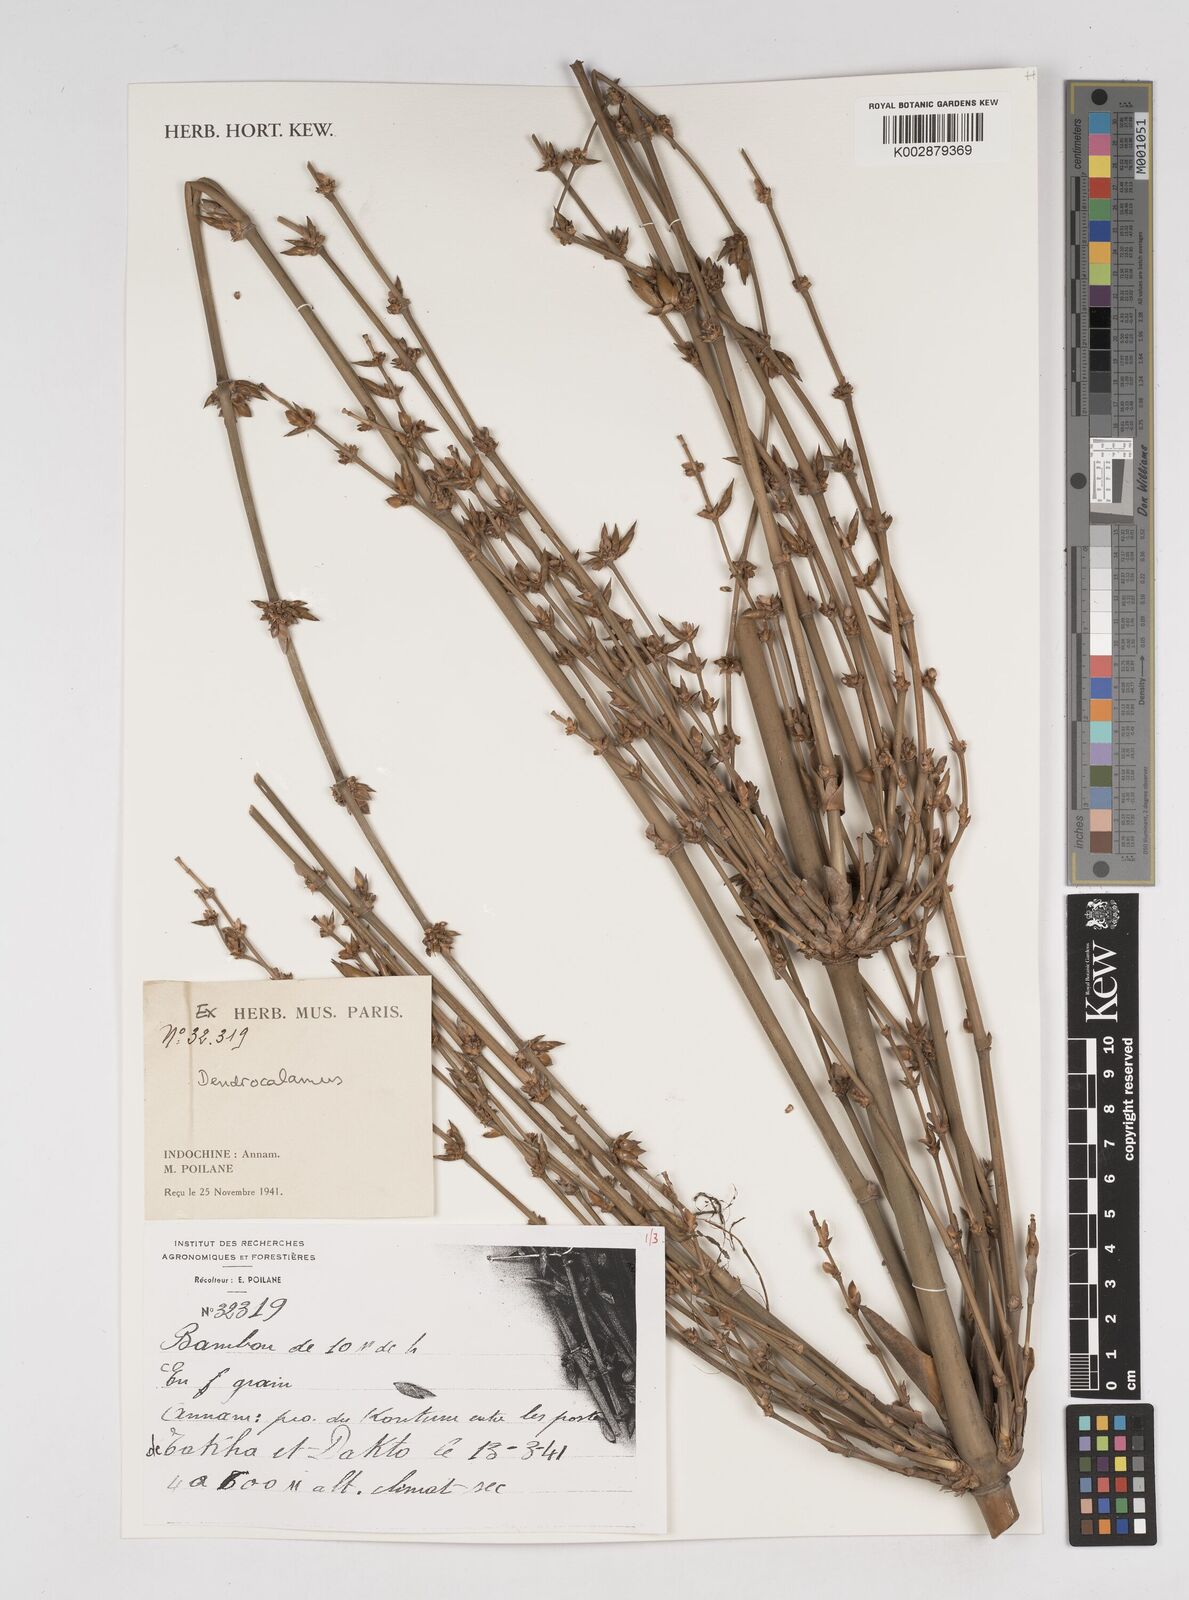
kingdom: Plantae
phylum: Tracheophyta
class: Liliopsida
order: Poales
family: Poaceae
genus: Dendrocalamus
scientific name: Dendrocalamus
